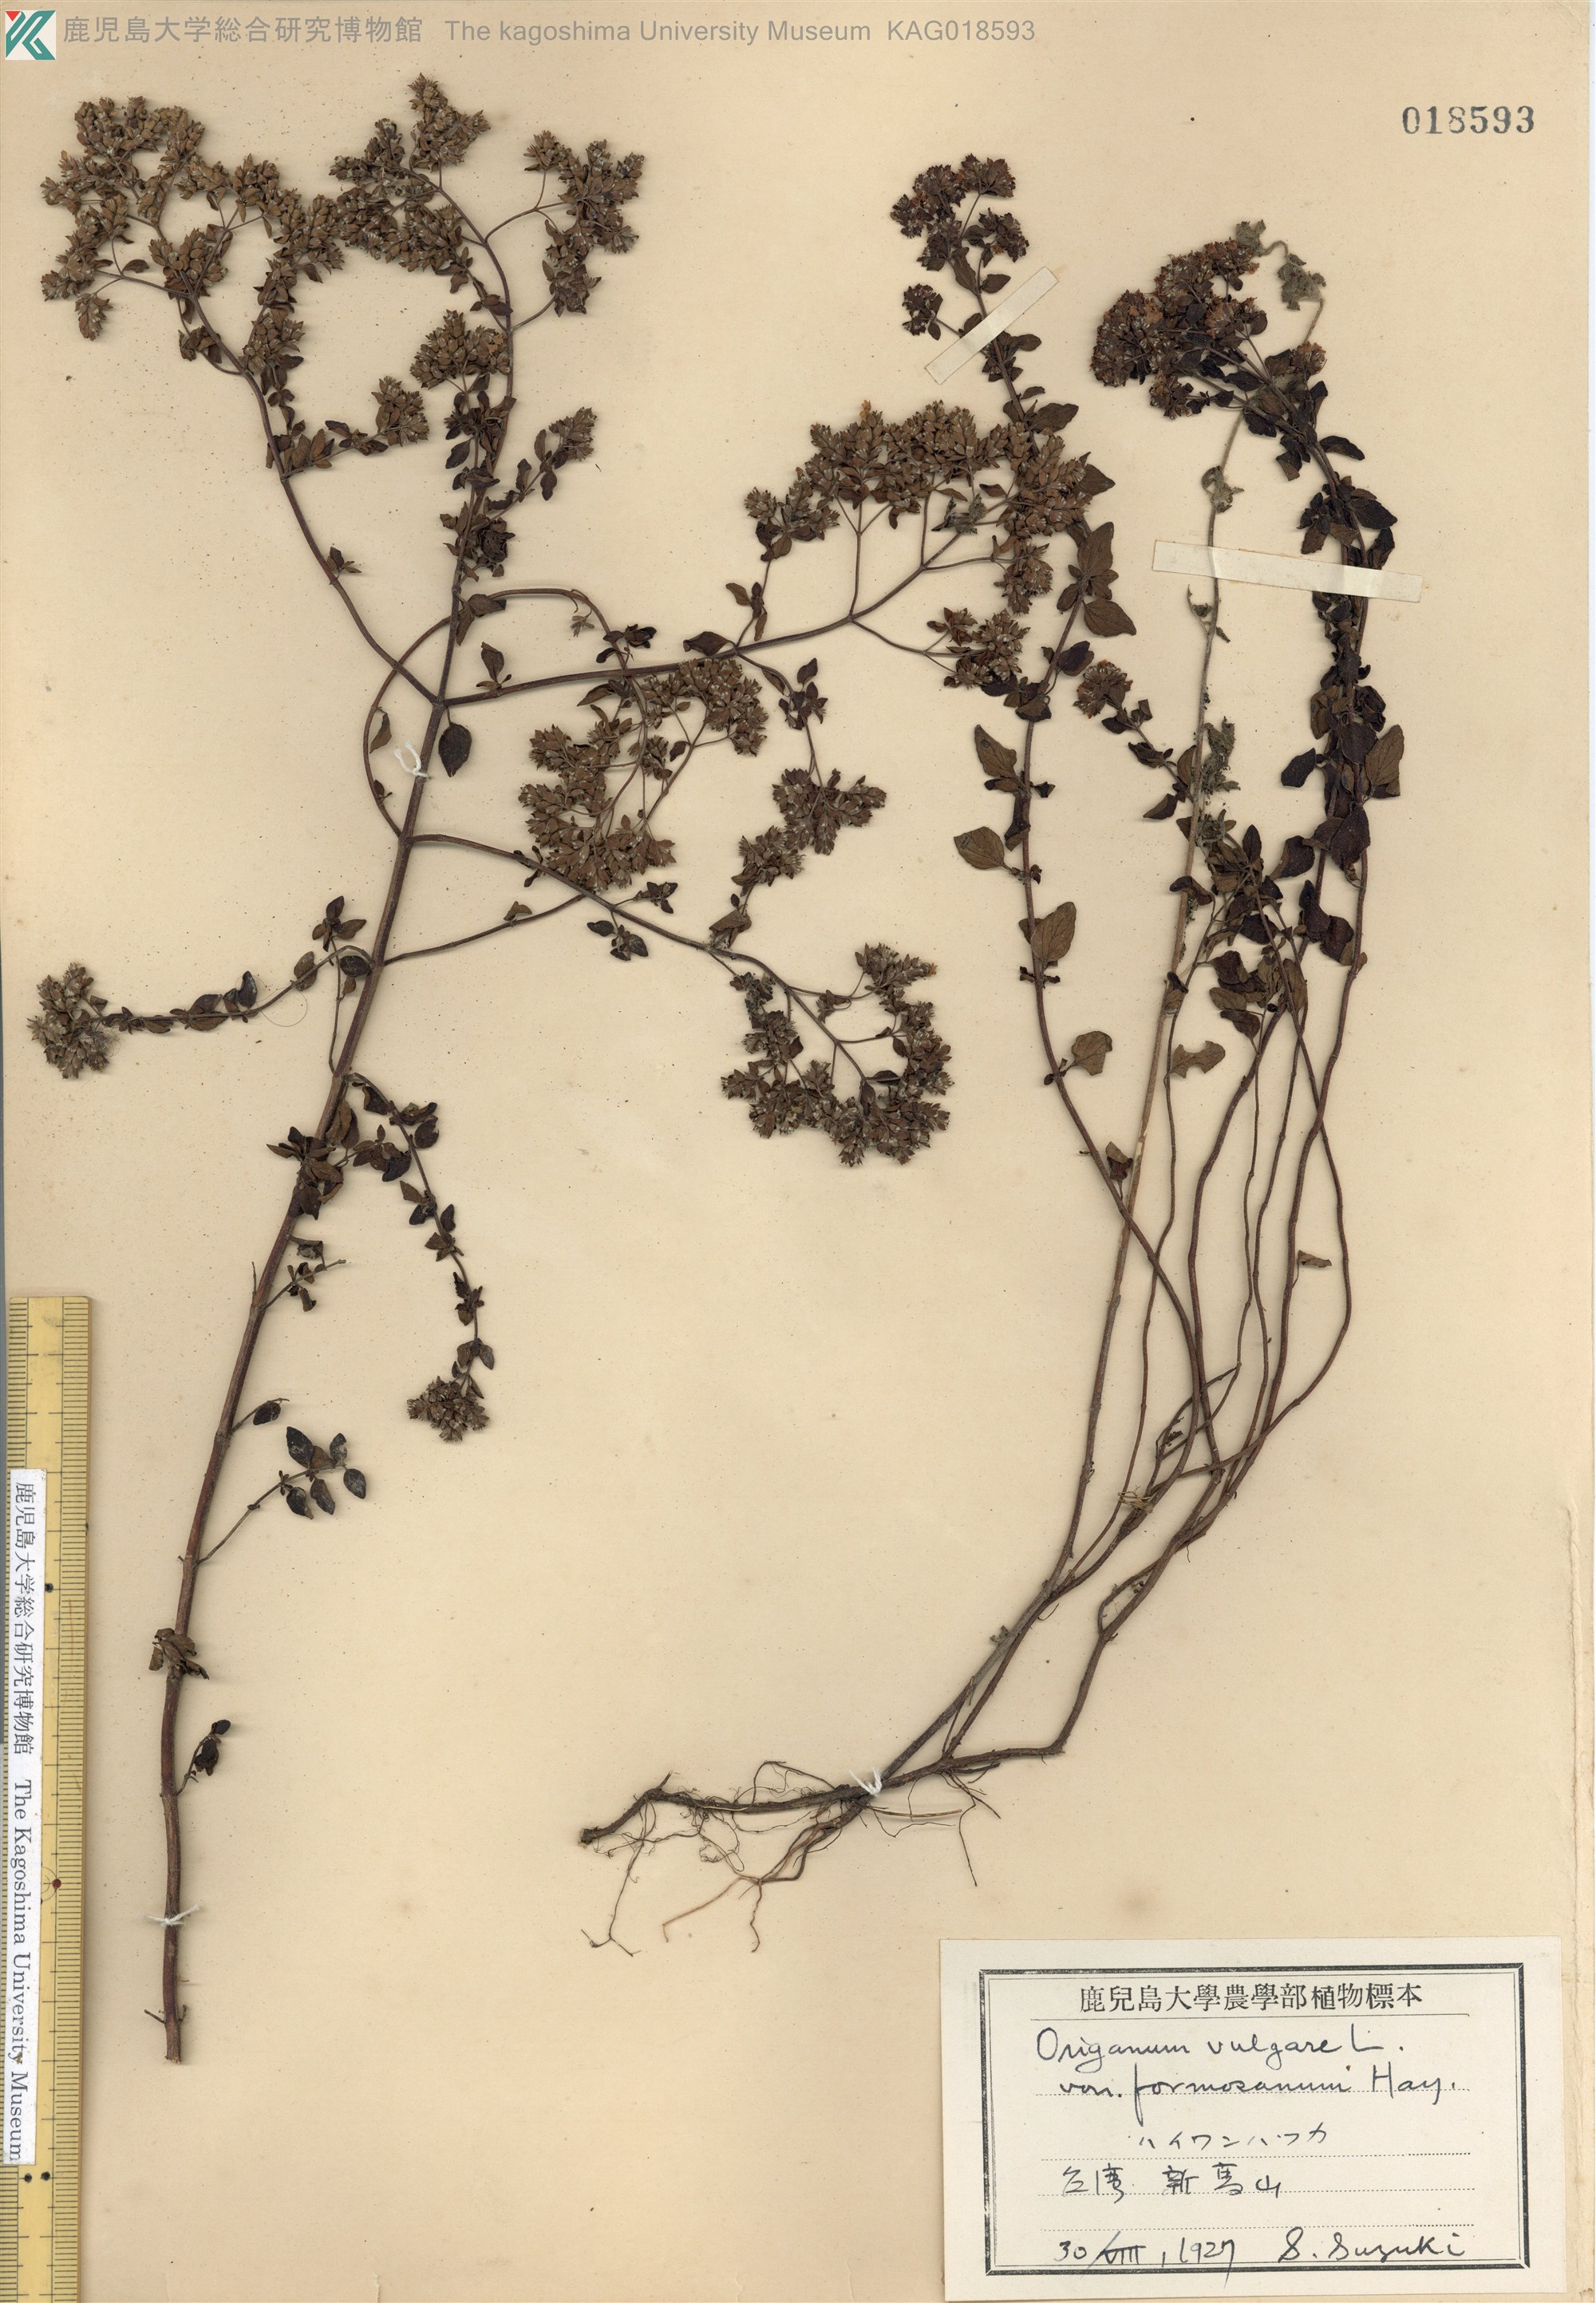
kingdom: Plantae
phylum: Tracheophyta
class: Magnoliopsida
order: Lamiales
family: Lamiaceae
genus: Origanum
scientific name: Origanum vulgare
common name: Wild marjoram
